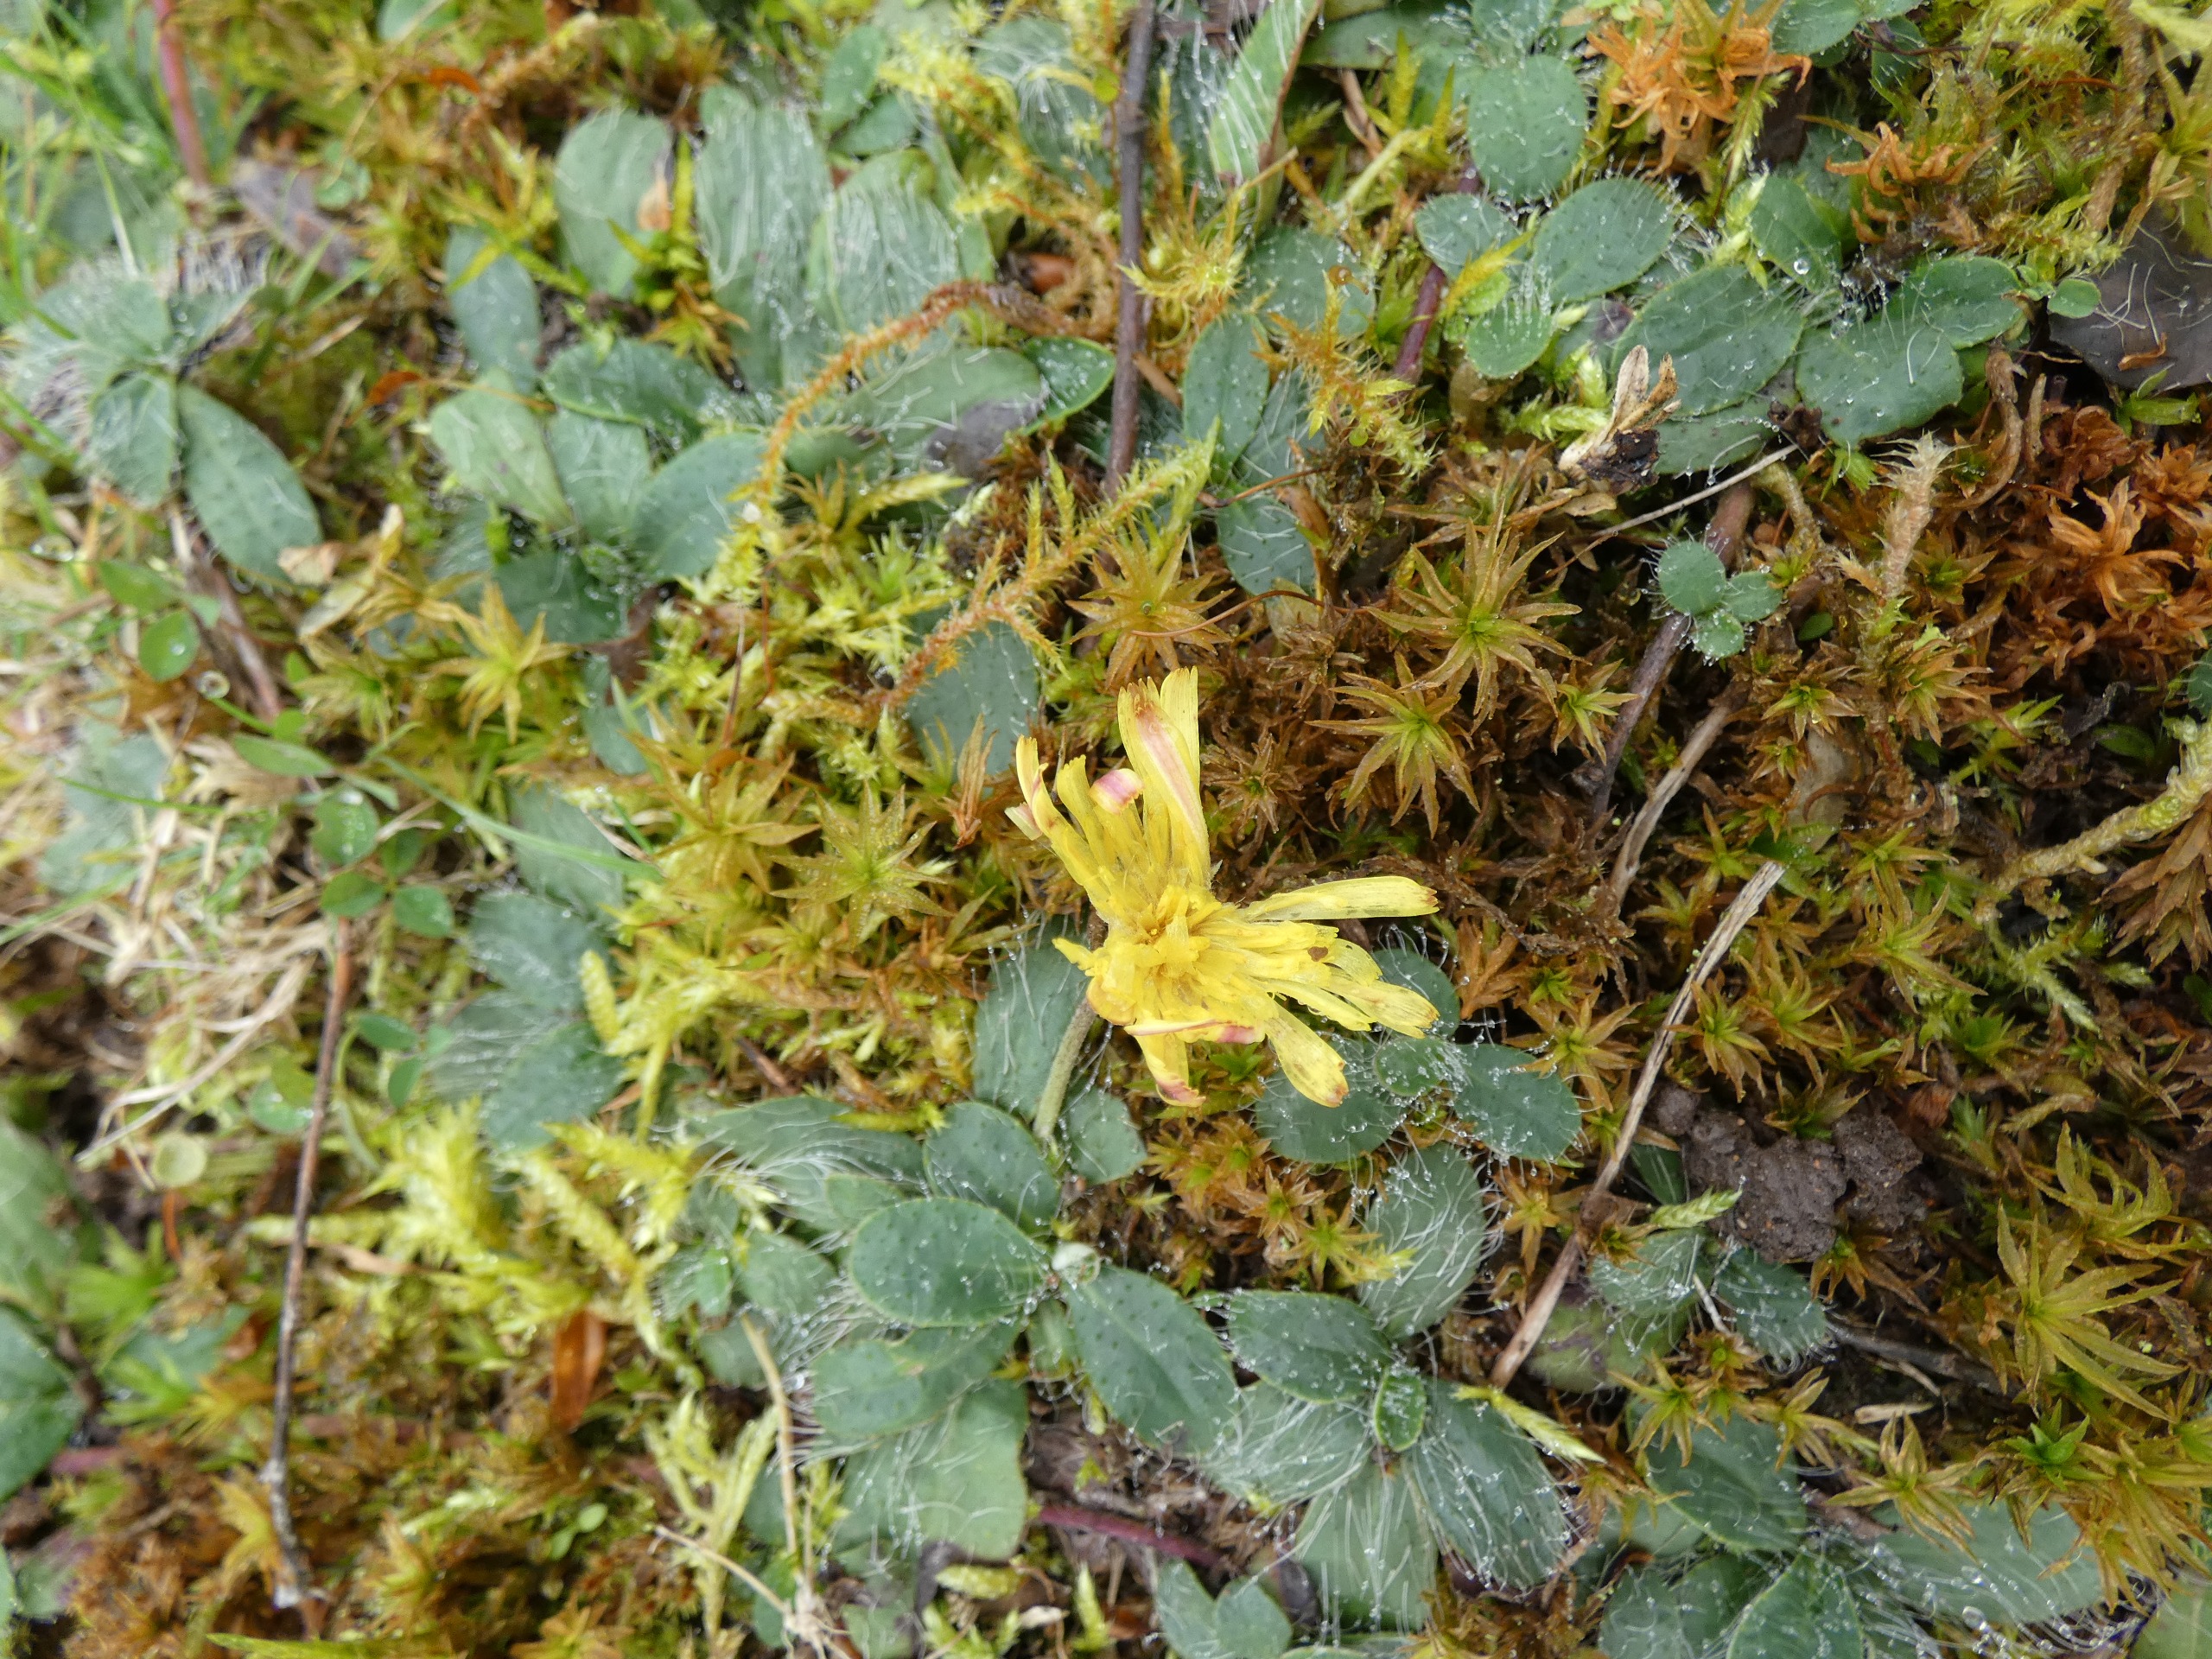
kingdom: Plantae
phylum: Tracheophyta
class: Magnoliopsida
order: Asterales
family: Asteraceae
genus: Pilosella
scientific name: Pilosella officinarum
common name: Håret høgeurt
